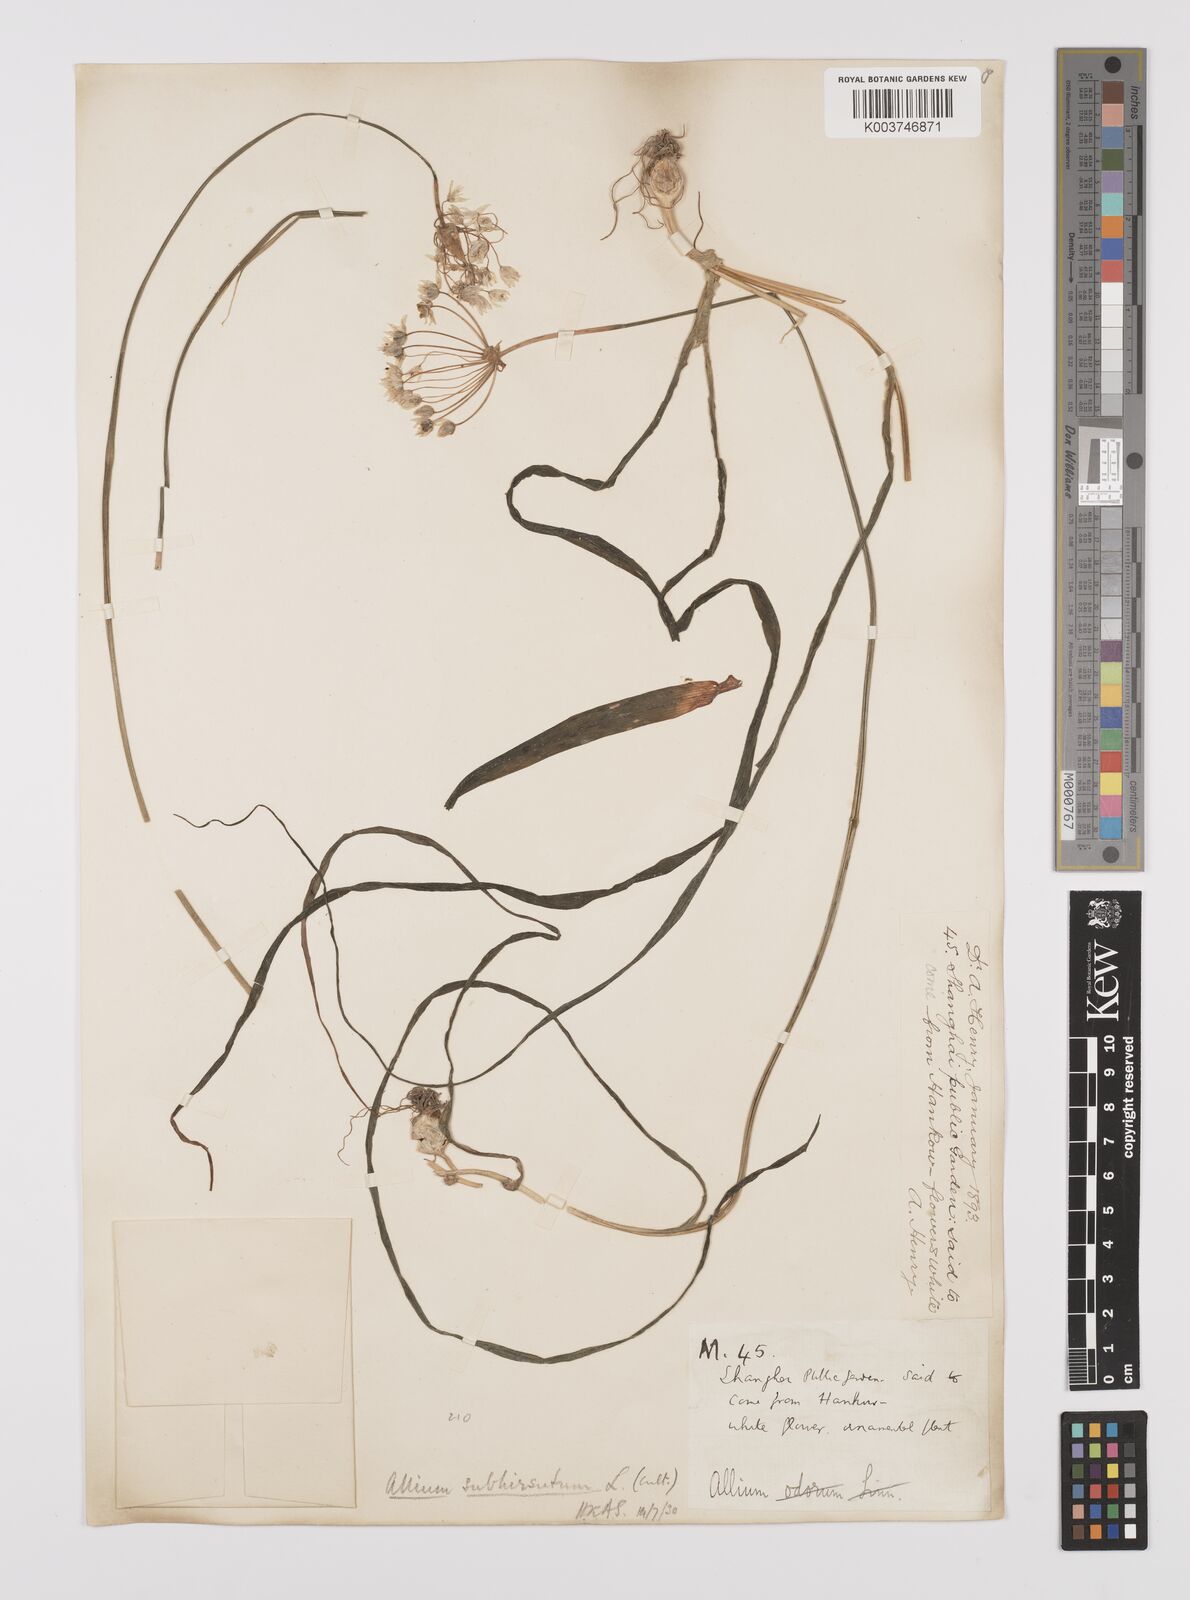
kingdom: Plantae
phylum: Tracheophyta
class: Liliopsida
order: Asparagales
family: Amaryllidaceae
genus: Allium
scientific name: Allium subhirsutum
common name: Hairy garlic
